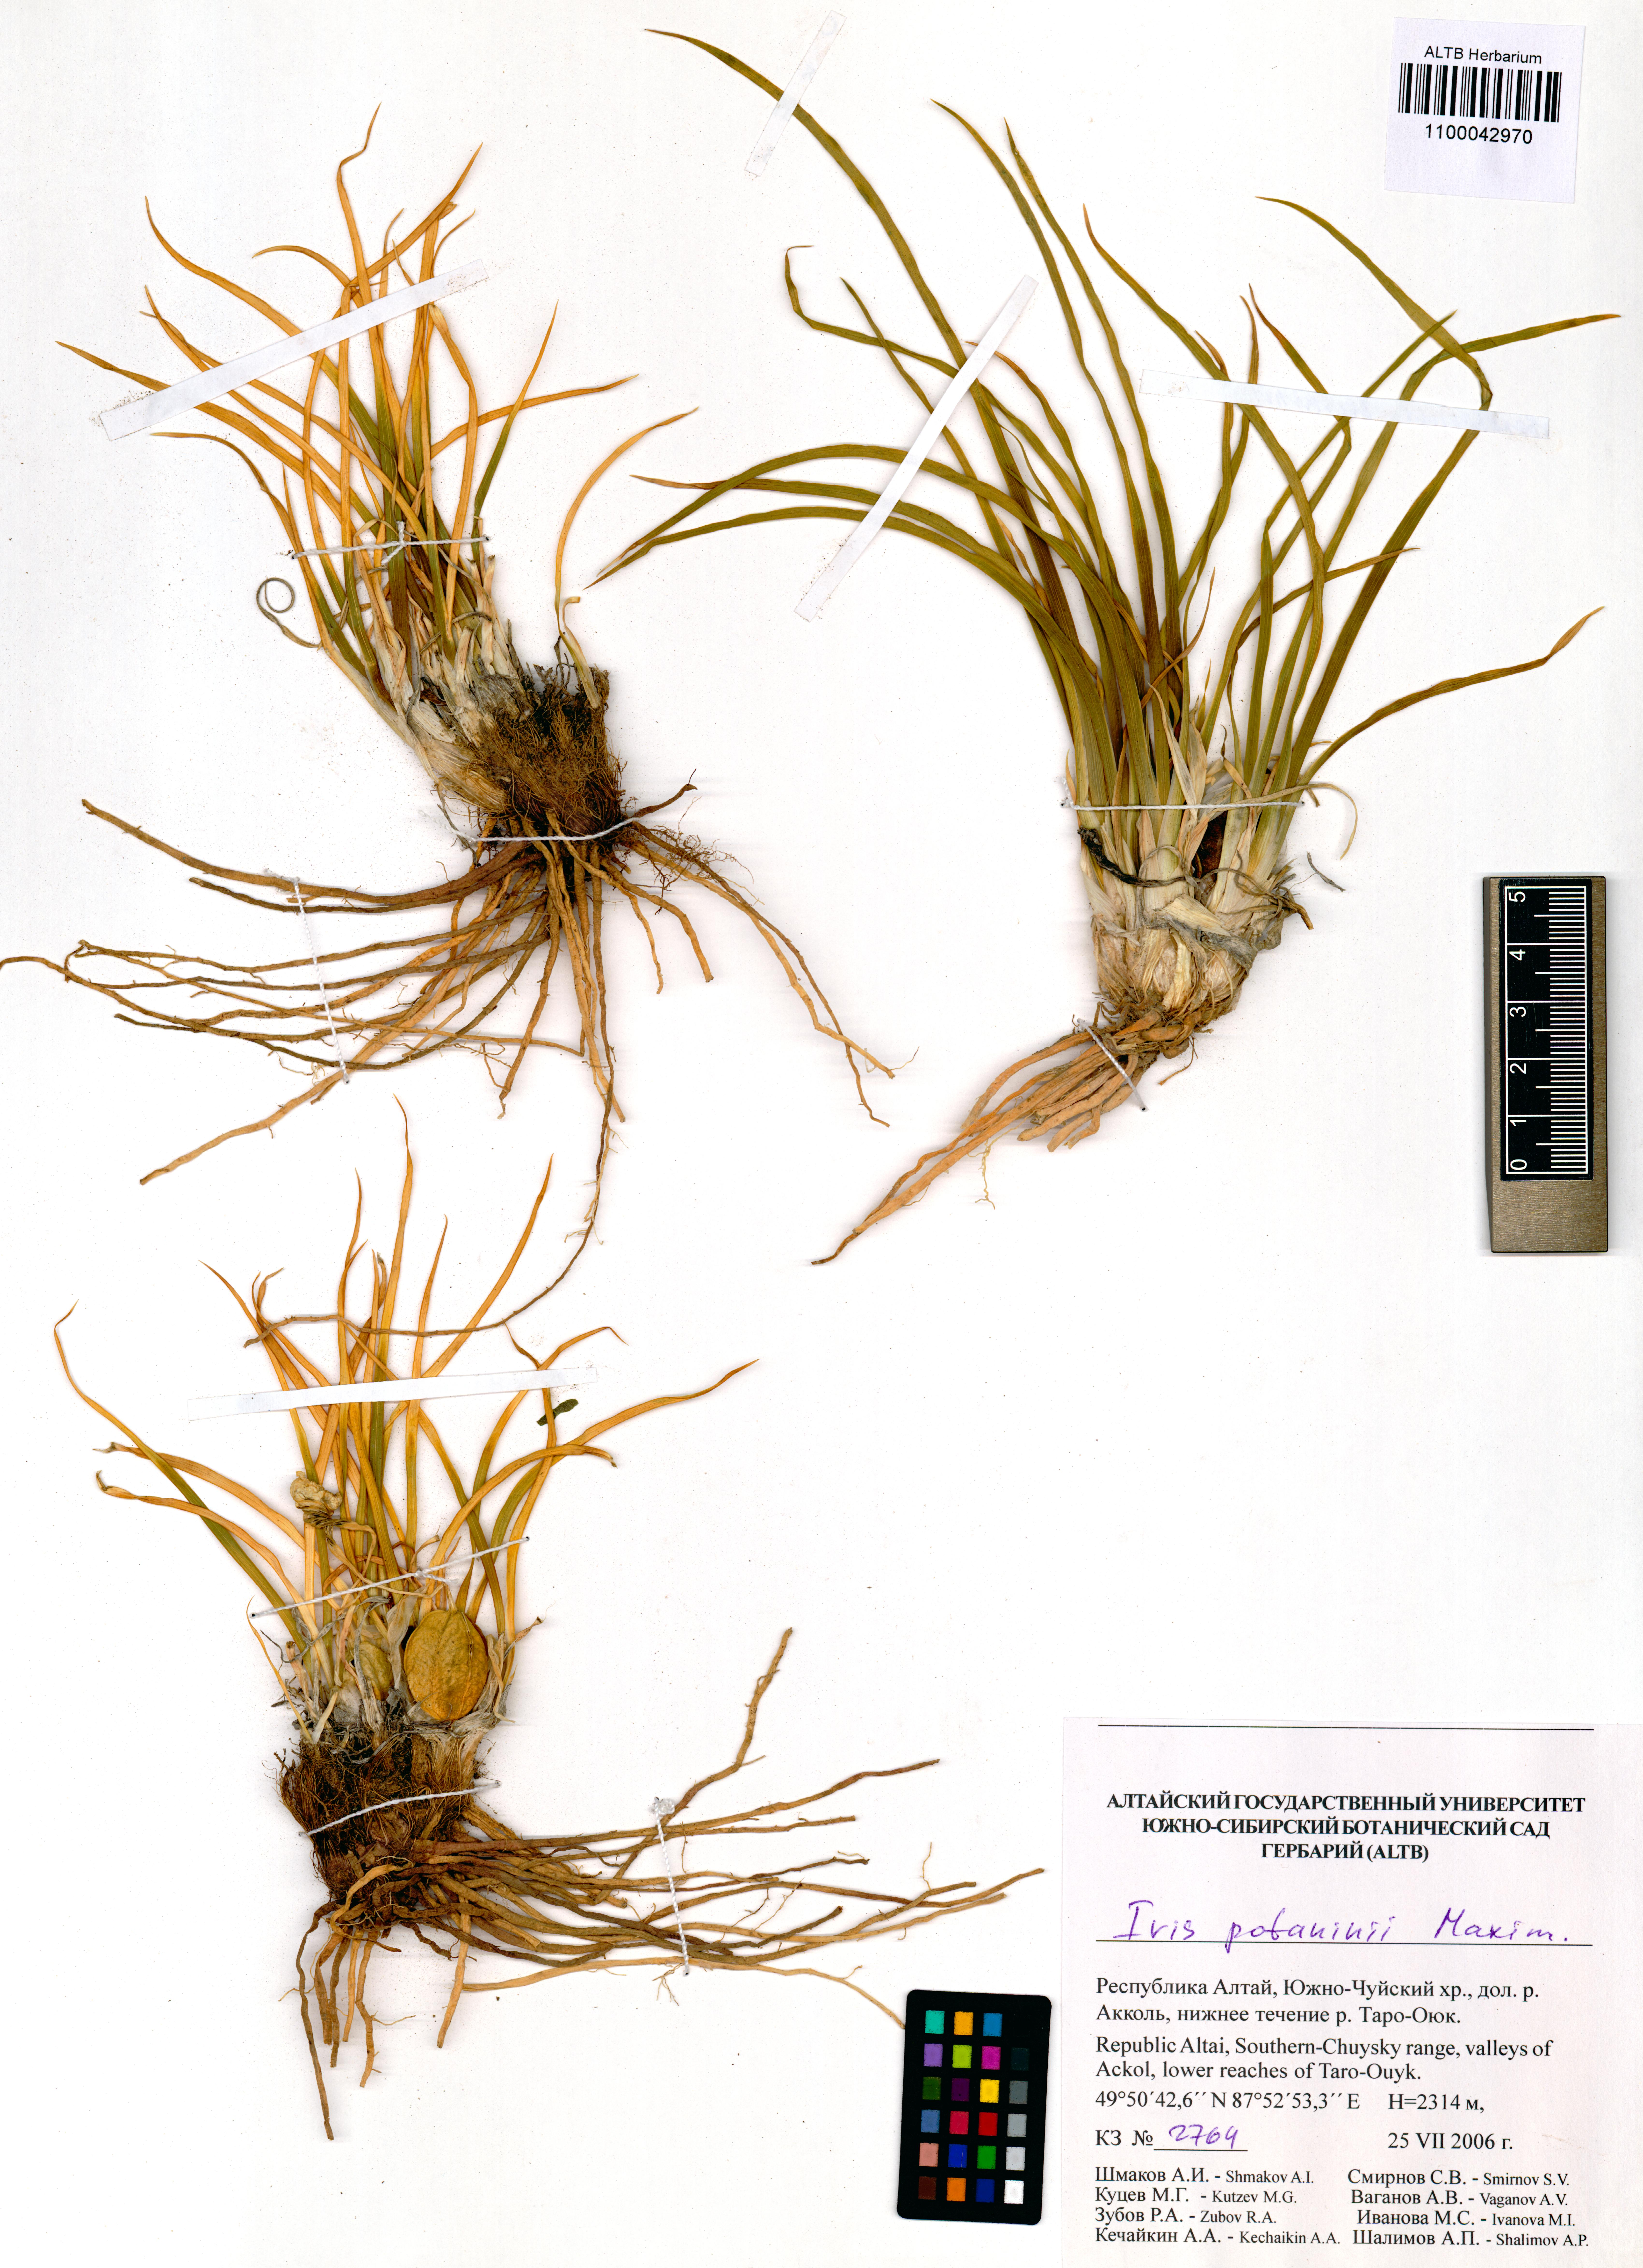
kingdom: Plantae
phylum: Tracheophyta
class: Liliopsida
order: Asparagales
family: Iridaceae
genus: Iris
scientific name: Iris potaninii
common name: Curl-sheath iris
